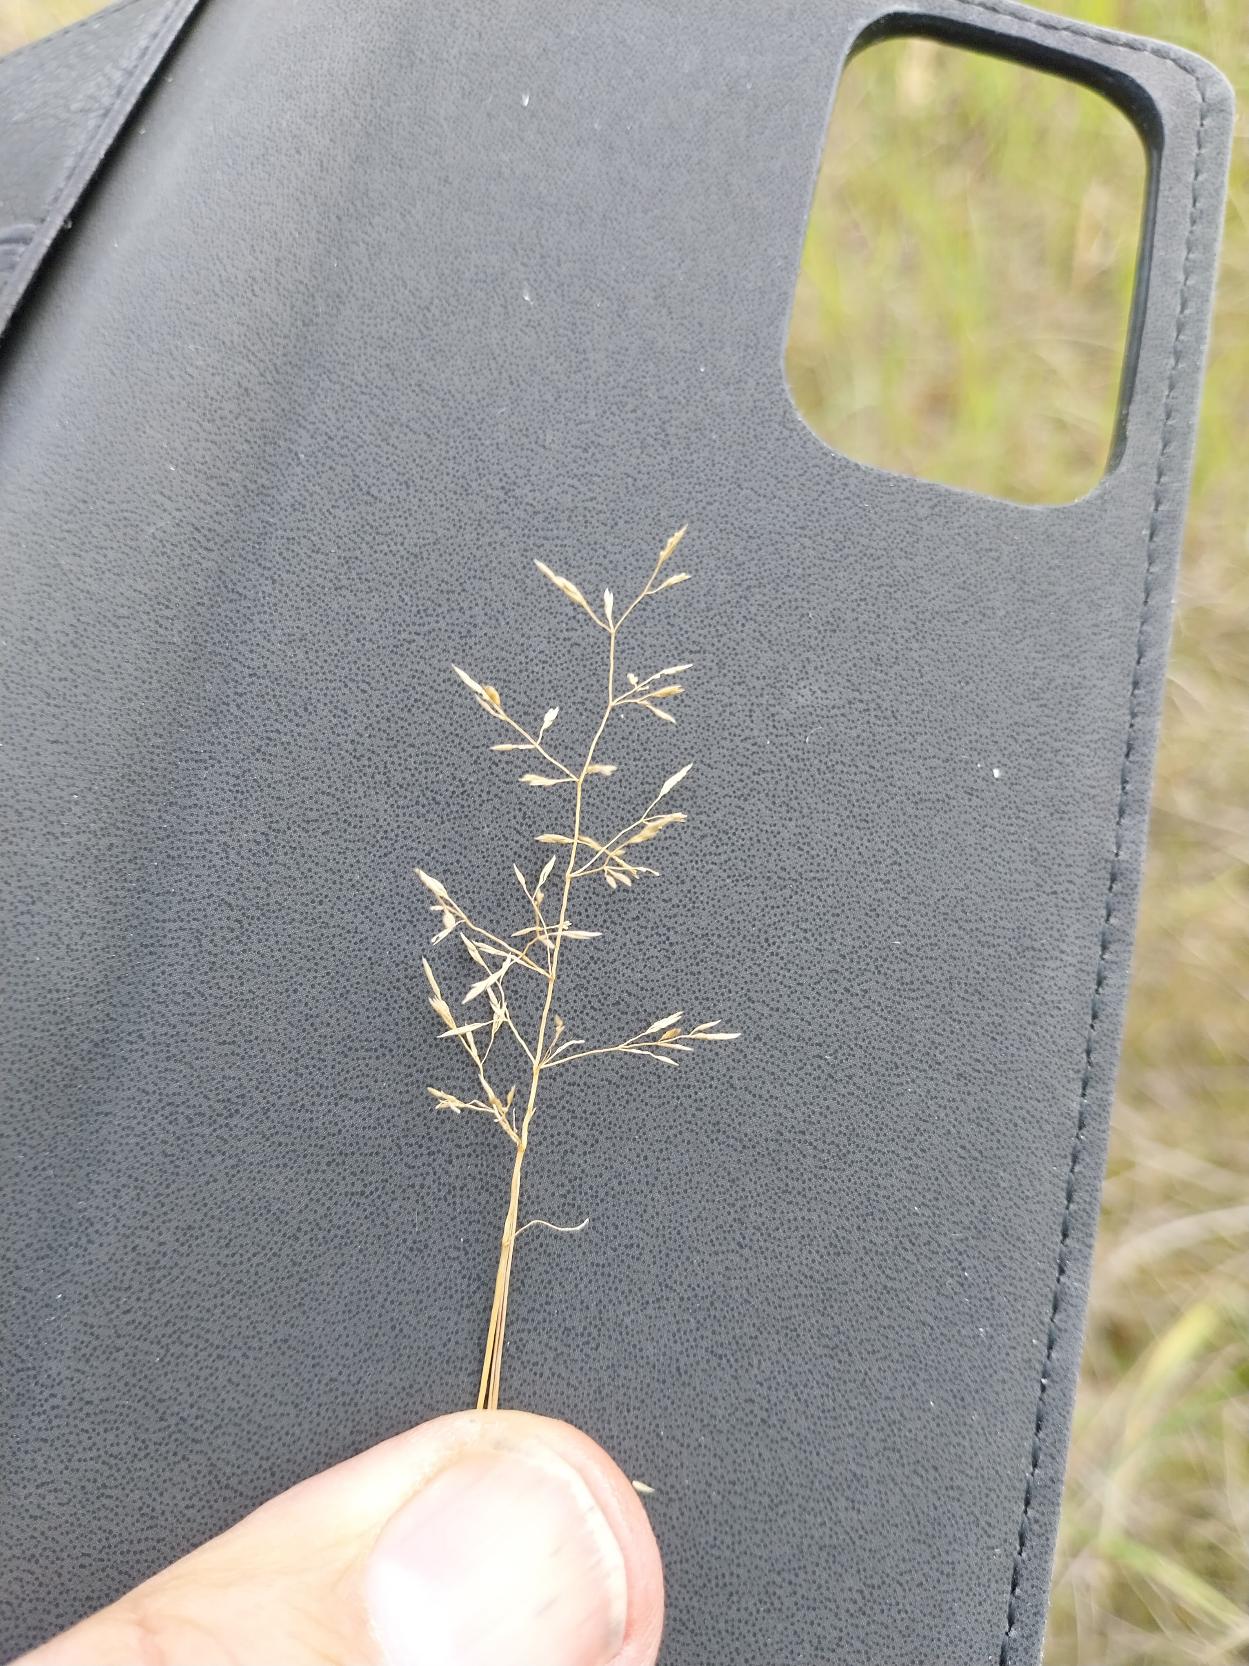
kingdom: Plantae
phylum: Tracheophyta
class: Liliopsida
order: Poales
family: Poaceae
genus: Agrostis
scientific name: Agrostis capillaris
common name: Almindelig hvene
